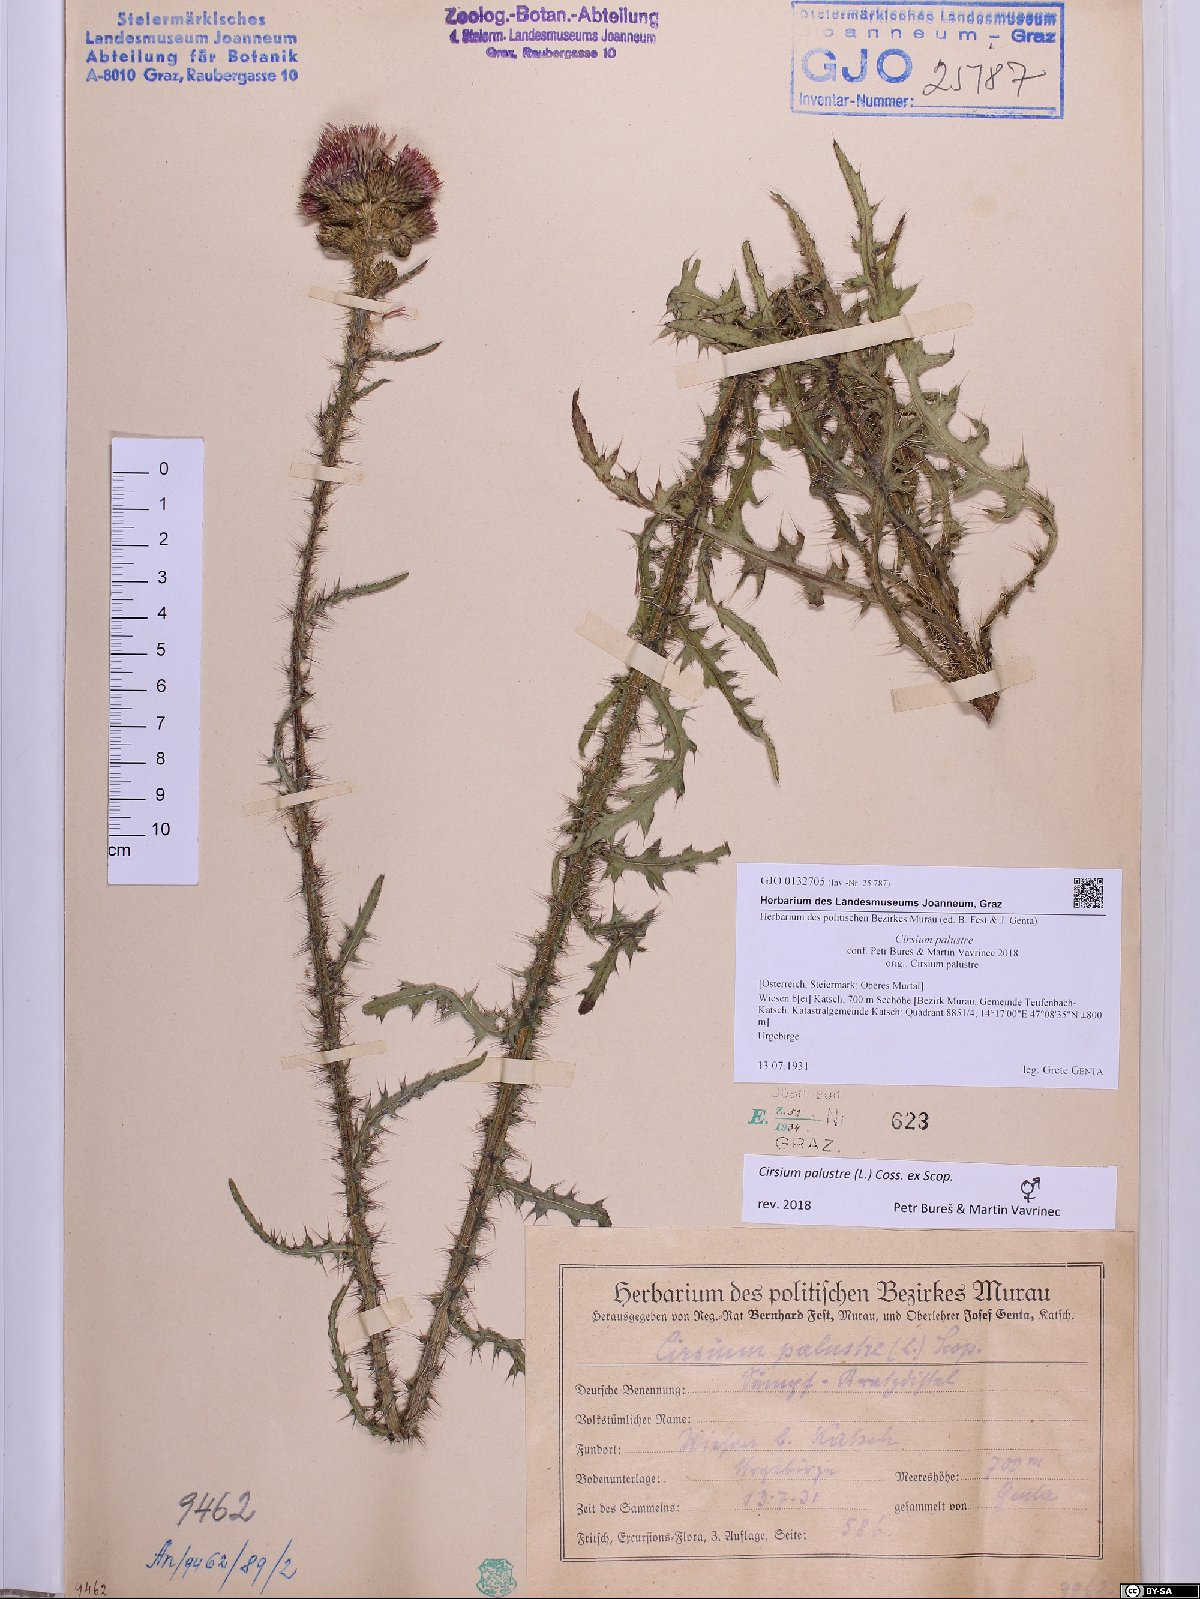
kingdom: Plantae
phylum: Tracheophyta
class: Magnoliopsida
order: Asterales
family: Asteraceae
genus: Cirsium
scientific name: Cirsium palustre
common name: Marsh thistle
